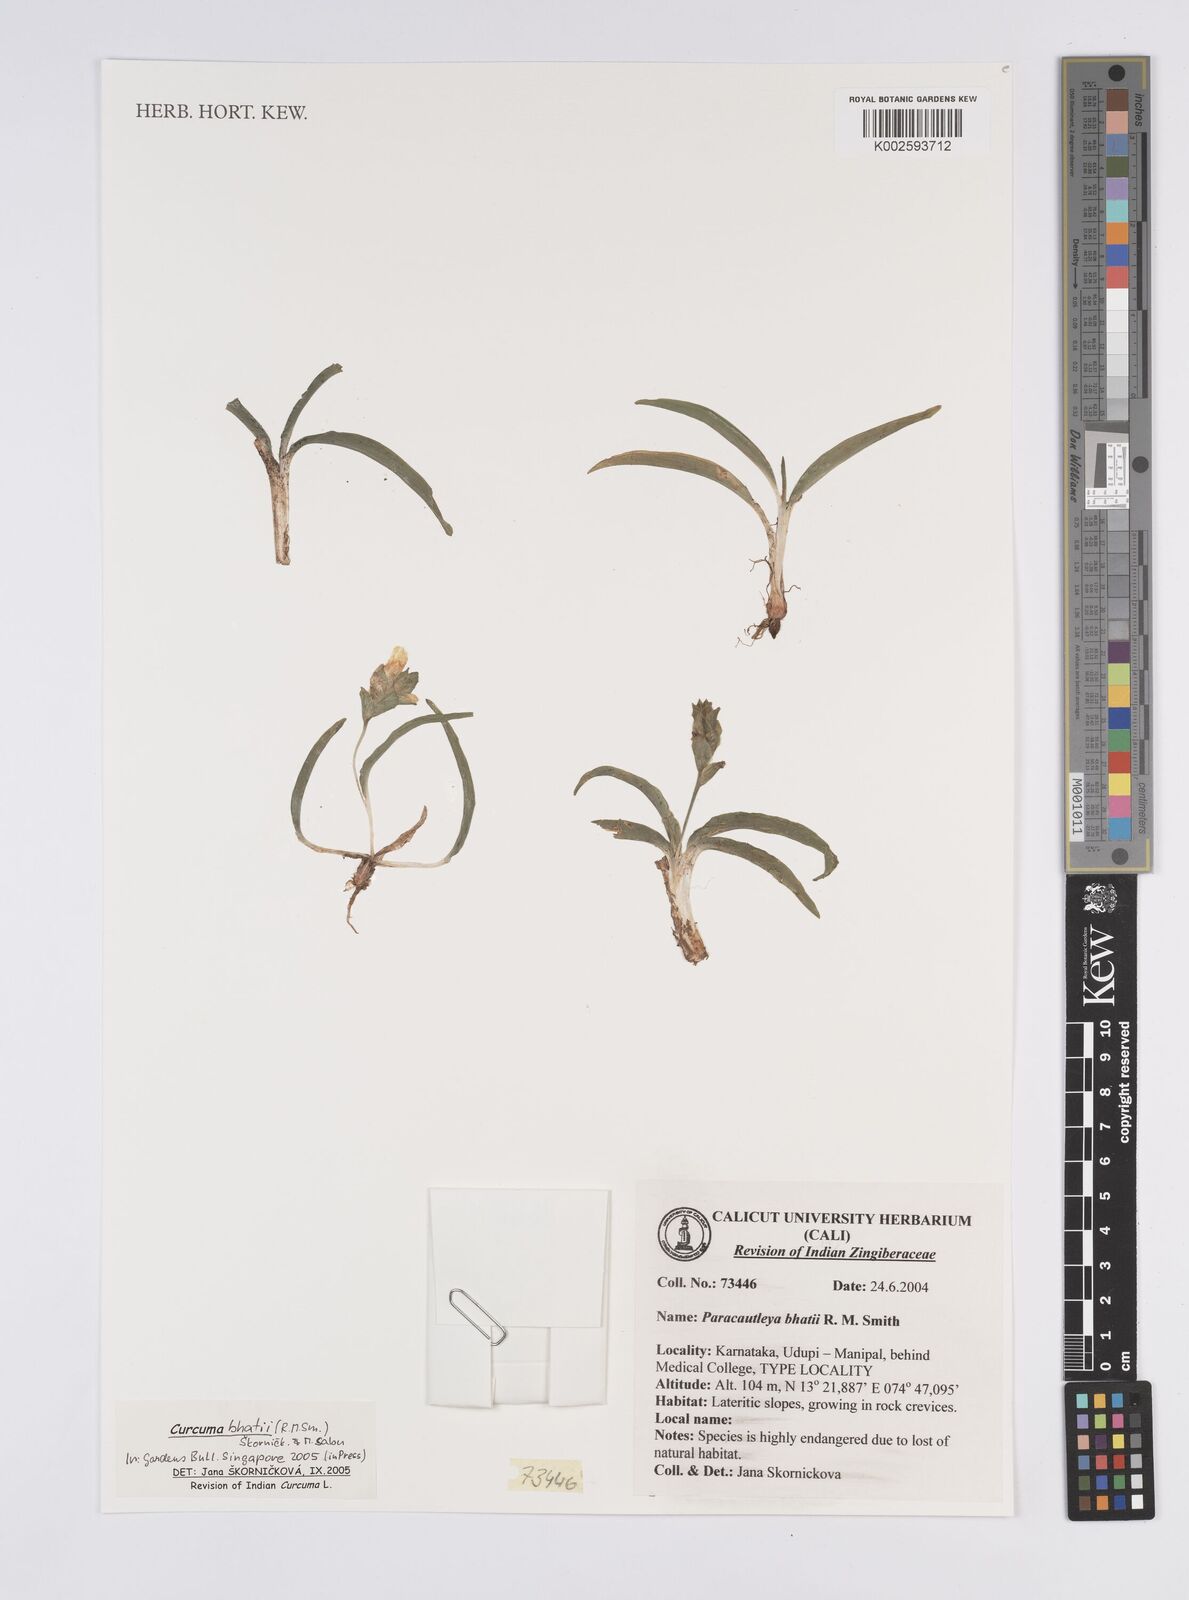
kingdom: Plantae
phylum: Tracheophyta
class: Liliopsida
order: Zingiberales
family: Zingiberaceae
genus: Curcuma
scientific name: Curcuma bhatii
